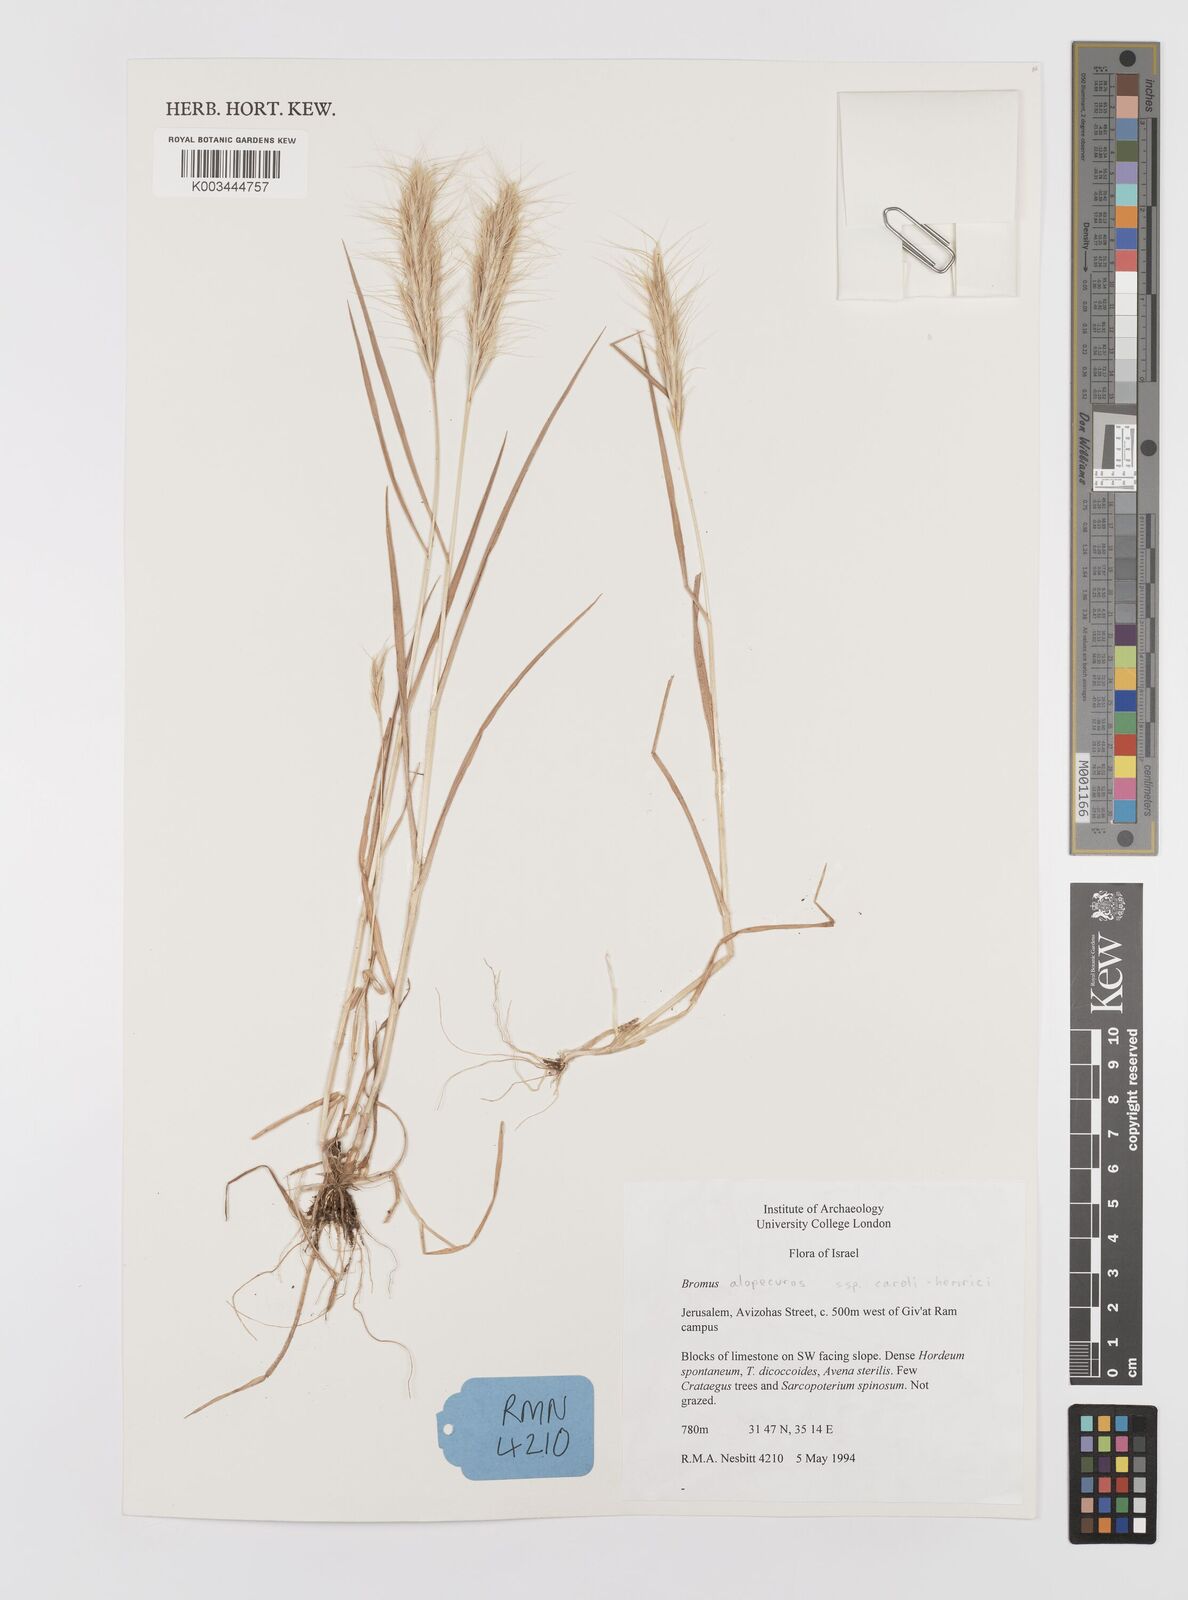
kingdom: Plantae
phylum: Tracheophyta
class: Liliopsida
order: Poales
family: Poaceae
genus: Bromus
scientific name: Bromus alopecuros
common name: Weedy brome
